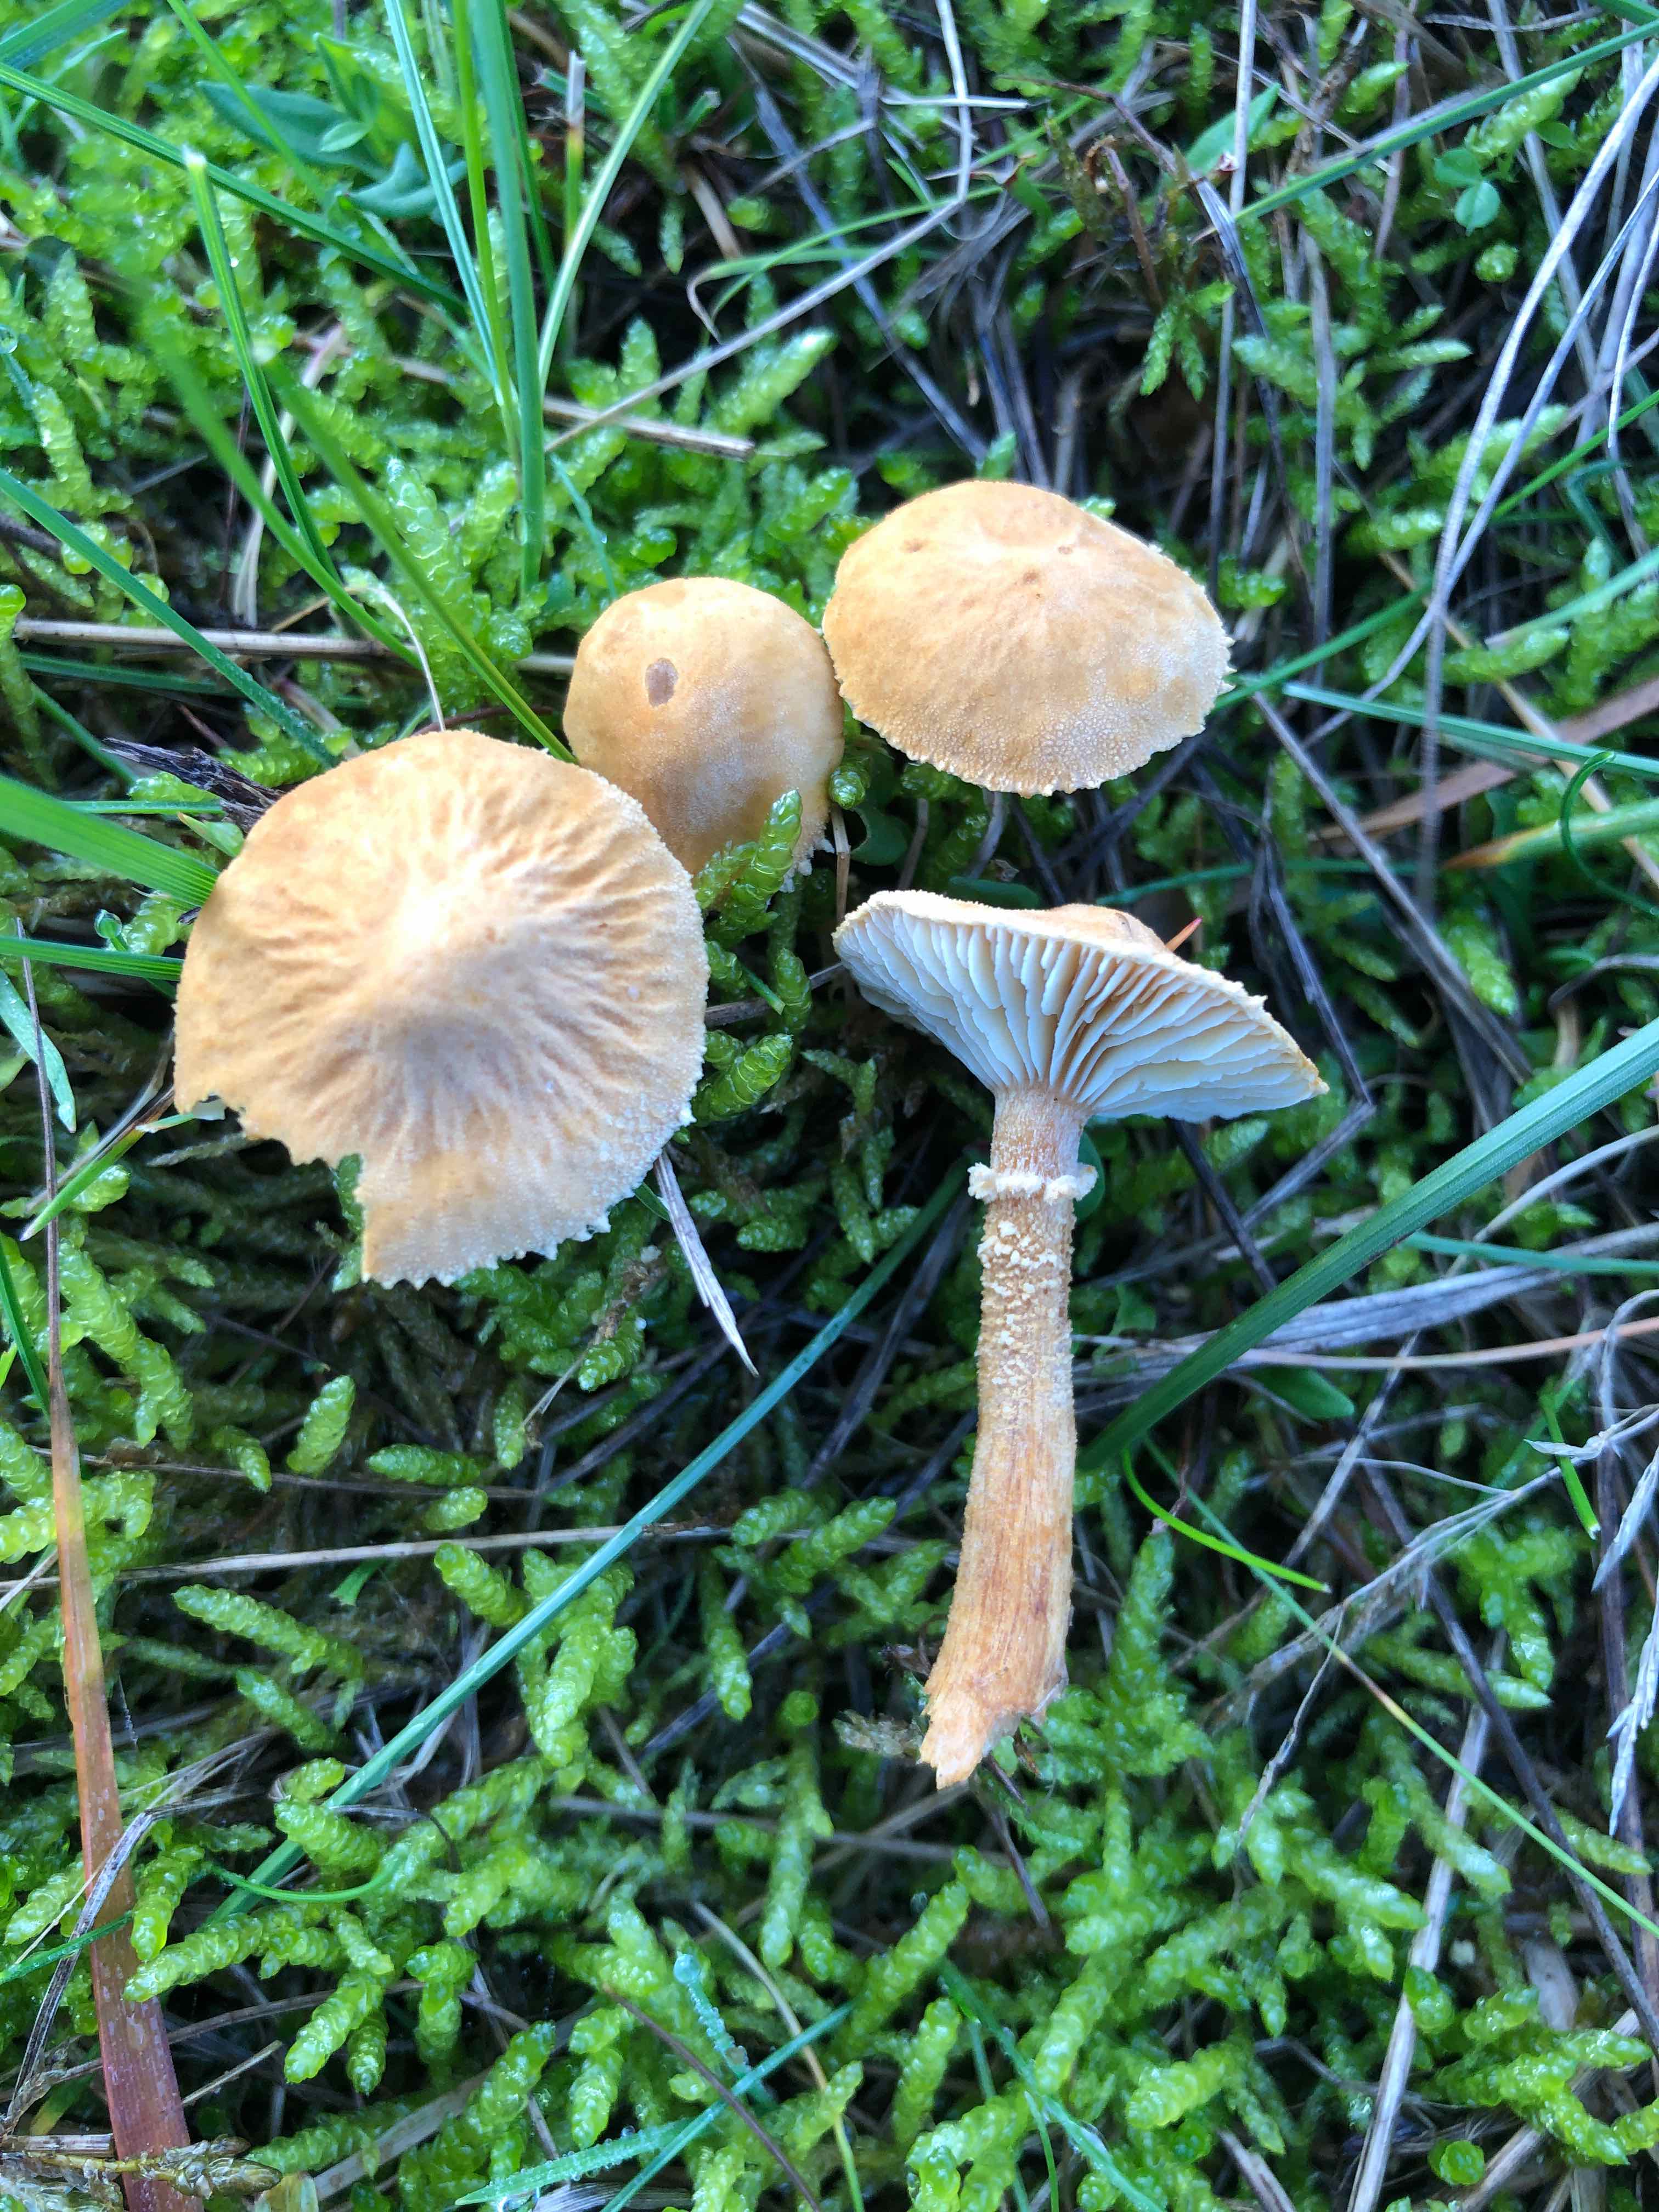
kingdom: Fungi
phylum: Basidiomycota
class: Agaricomycetes
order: Agaricales
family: Tricholomataceae
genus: Cystoderma
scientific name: Cystoderma amianthinum
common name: okkergul grynhat
